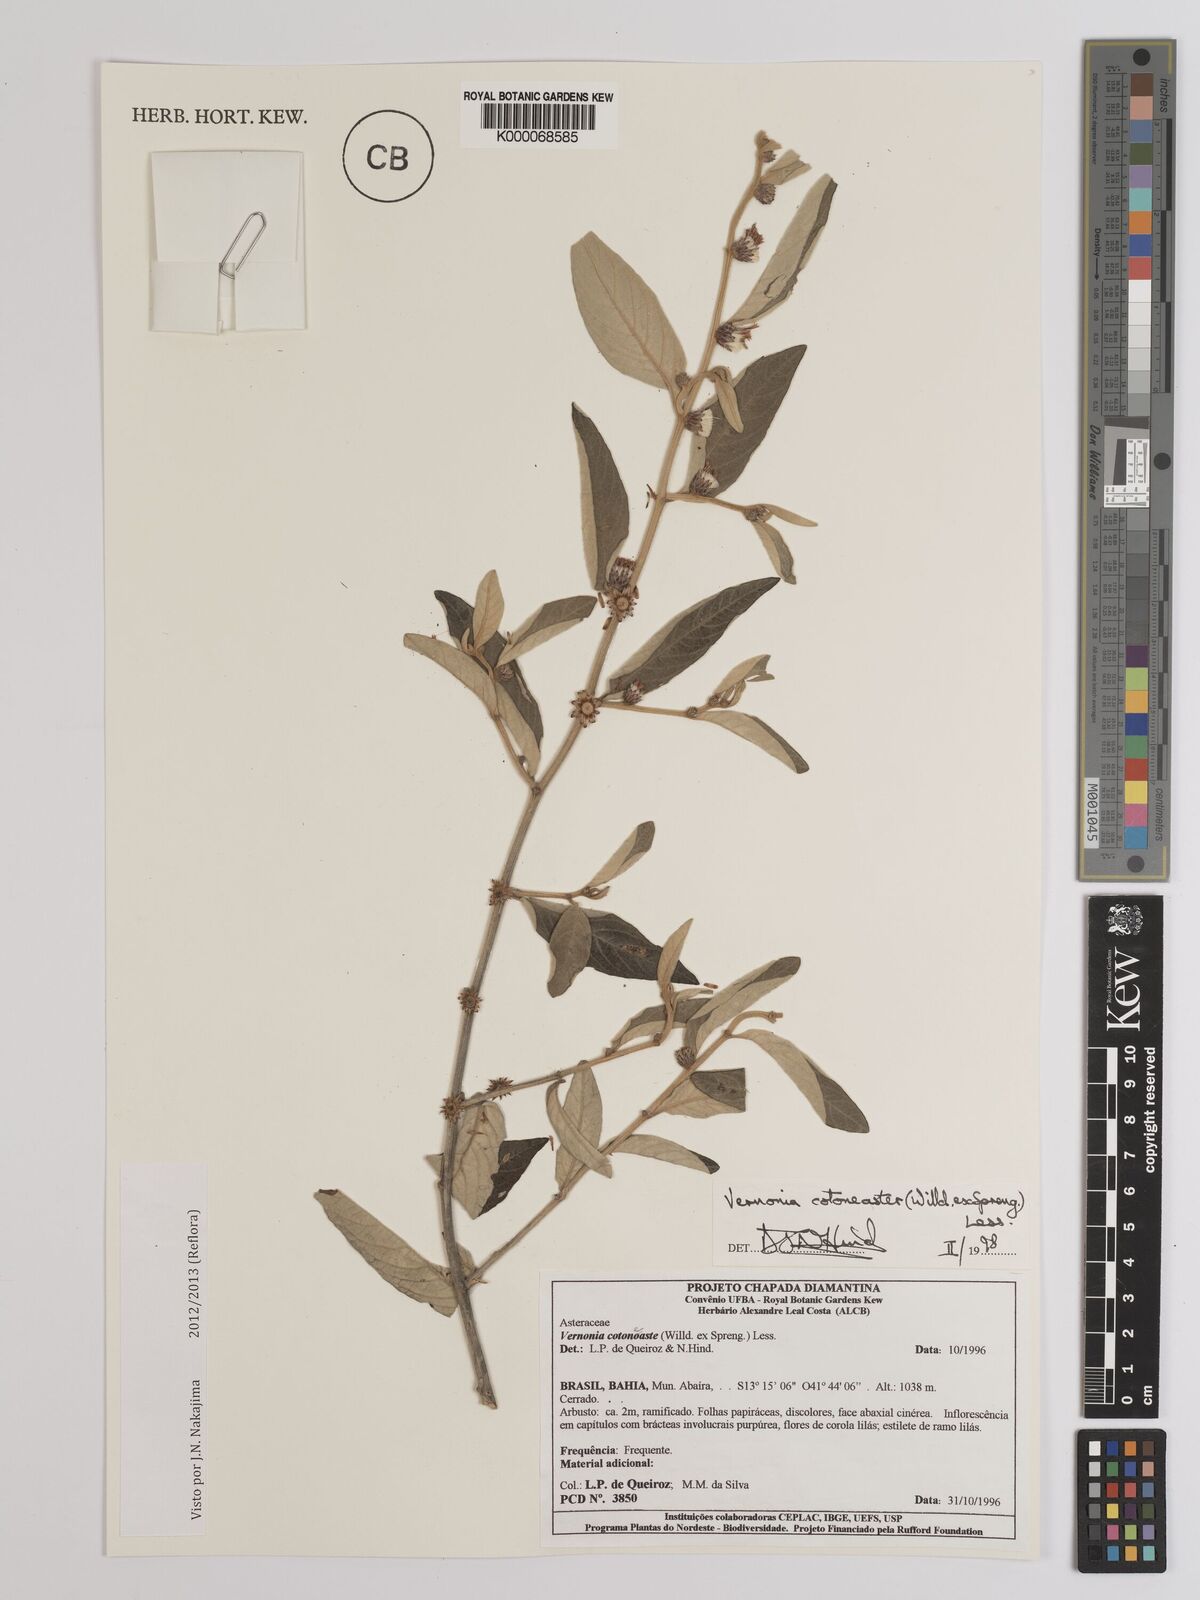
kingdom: Plantae
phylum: Tracheophyta
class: Magnoliopsida
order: Asterales
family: Asteraceae
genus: Lepidaploa
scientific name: Lepidaploa cotoneaster
